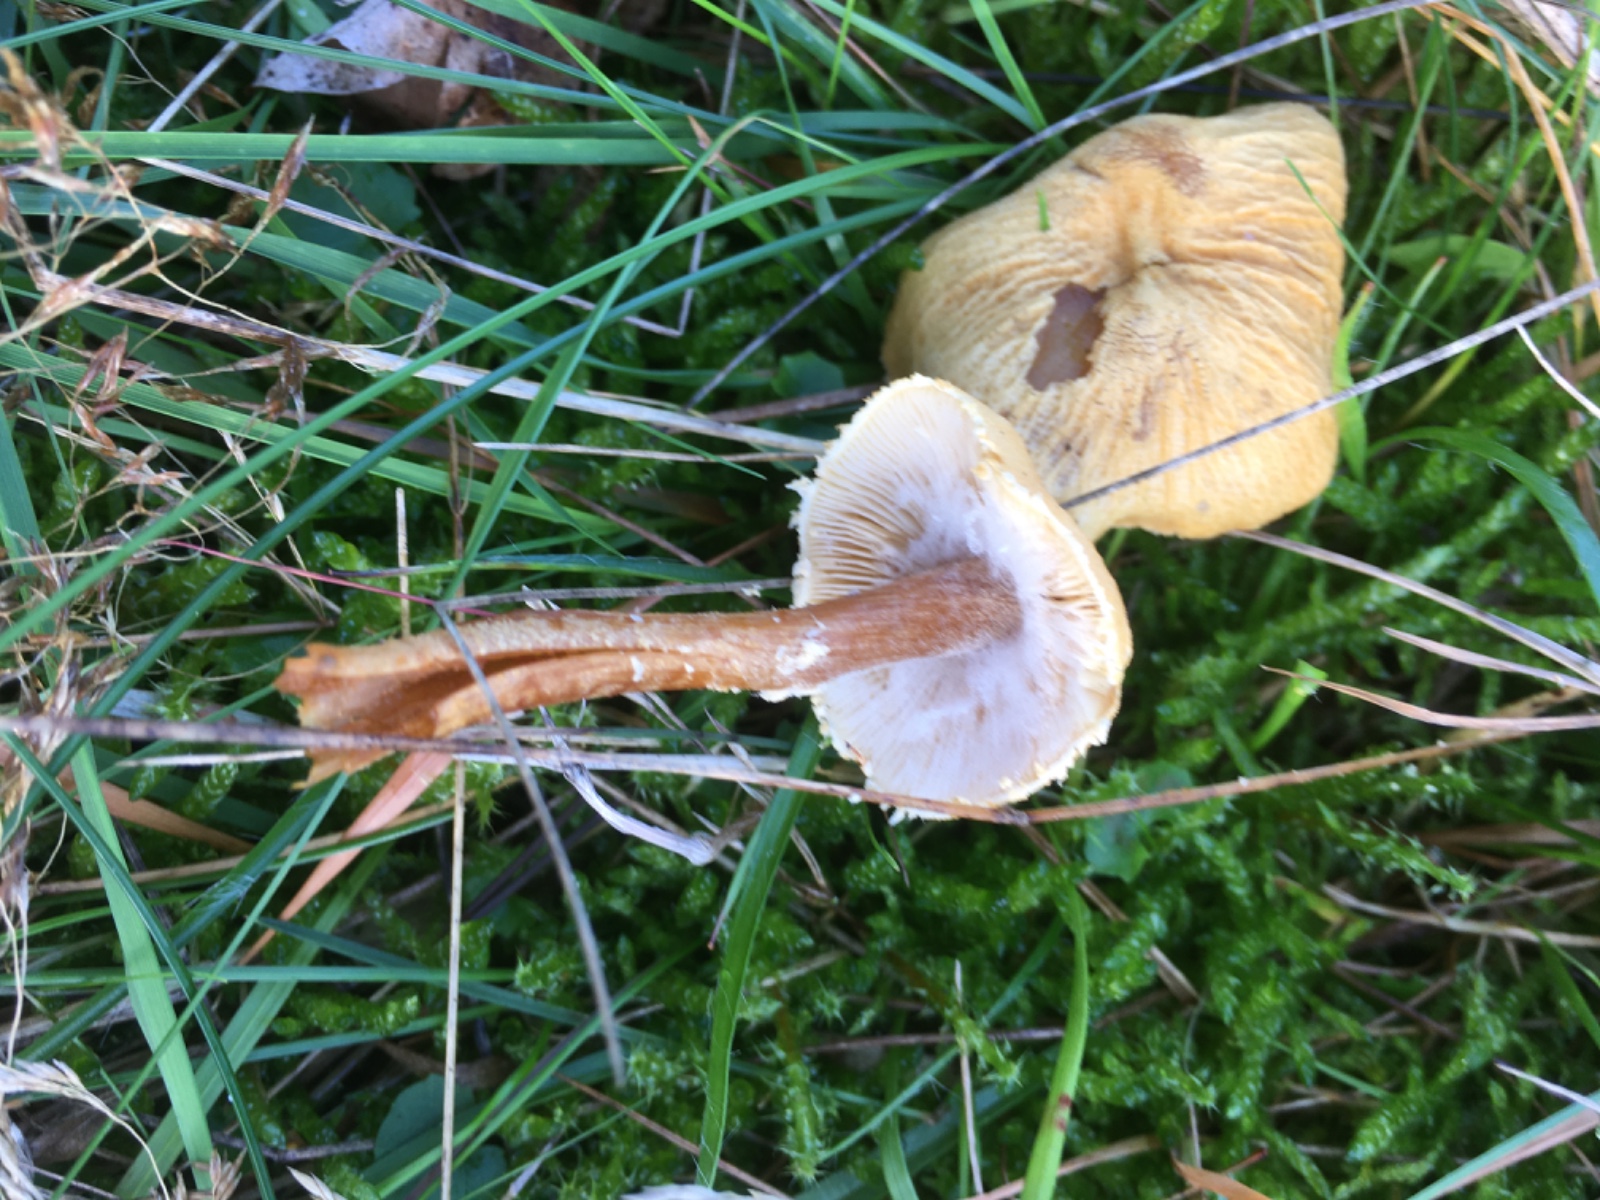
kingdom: Fungi
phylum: Basidiomycota
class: Agaricomycetes
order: Agaricales
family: Tricholomataceae
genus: Cystoderma
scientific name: Cystoderma
